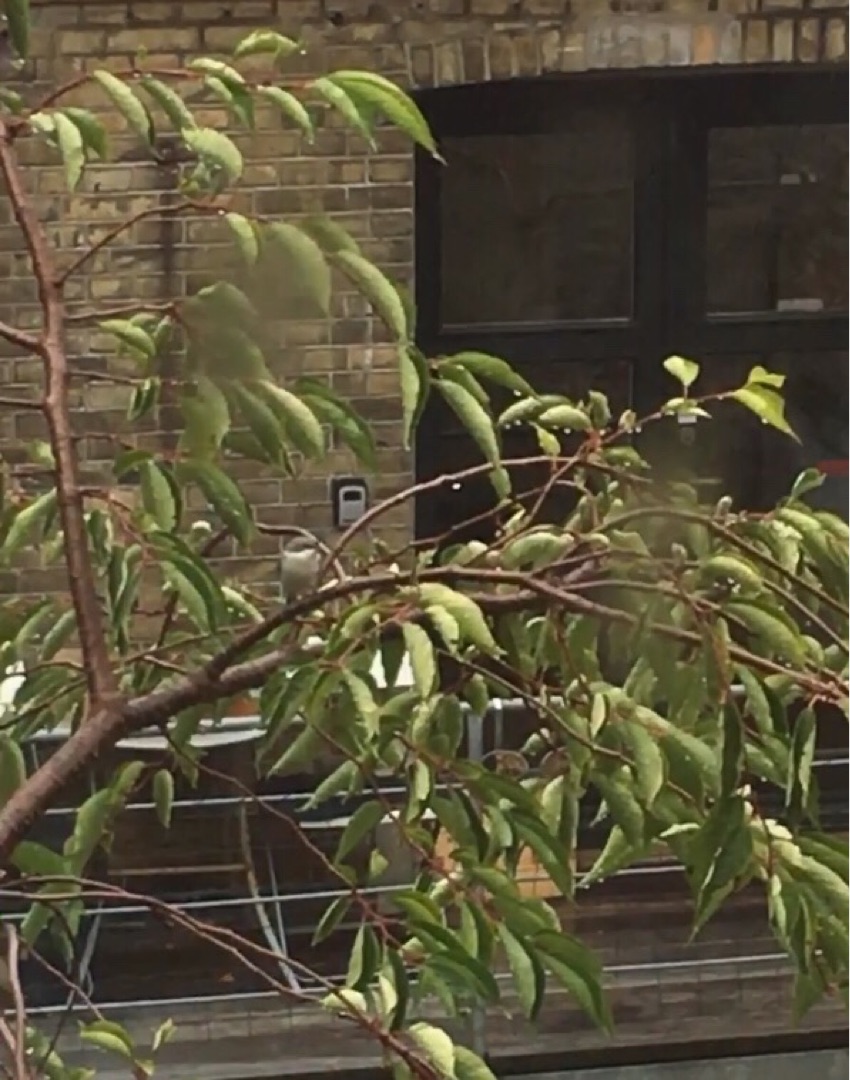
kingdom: Animalia
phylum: Chordata
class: Aves
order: Passeriformes
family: Sylviidae
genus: Sylvia
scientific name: Sylvia atricapilla
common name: Munk
